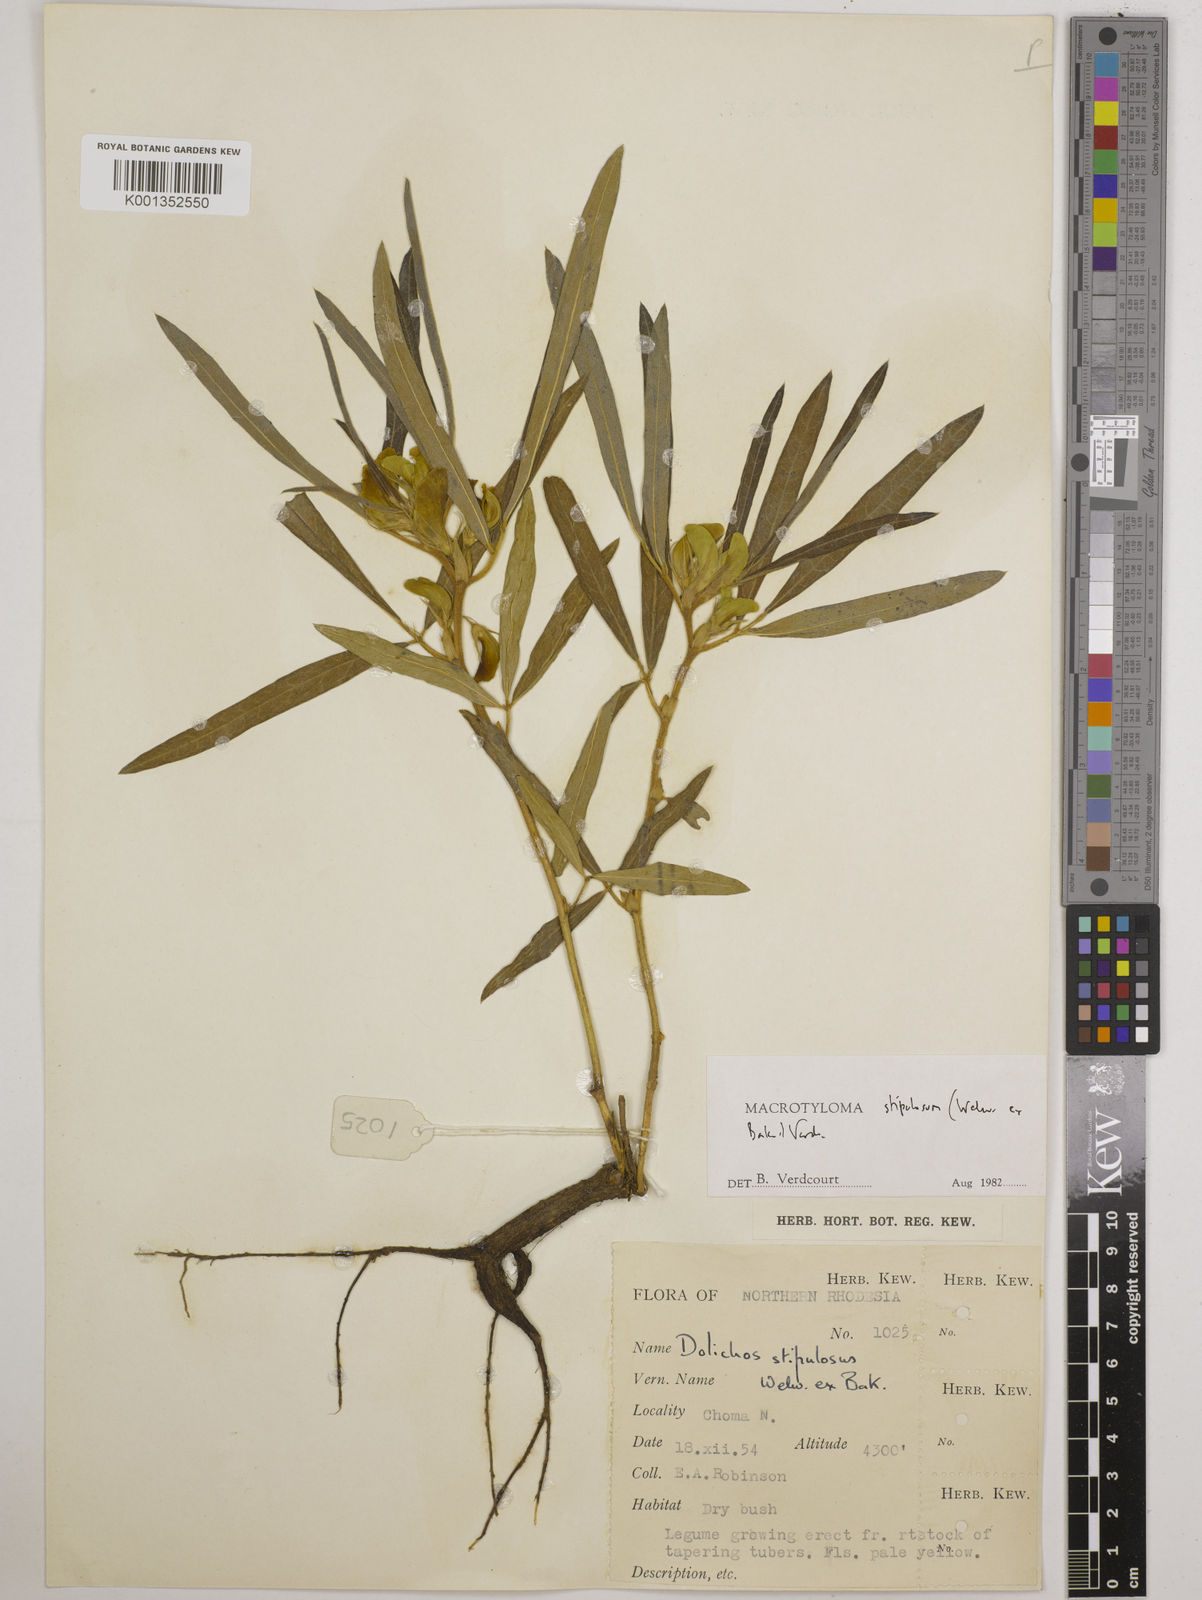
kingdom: Plantae
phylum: Tracheophyta
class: Magnoliopsida
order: Fabales
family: Fabaceae
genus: Macrotyloma
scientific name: Macrotyloma stipulosum
